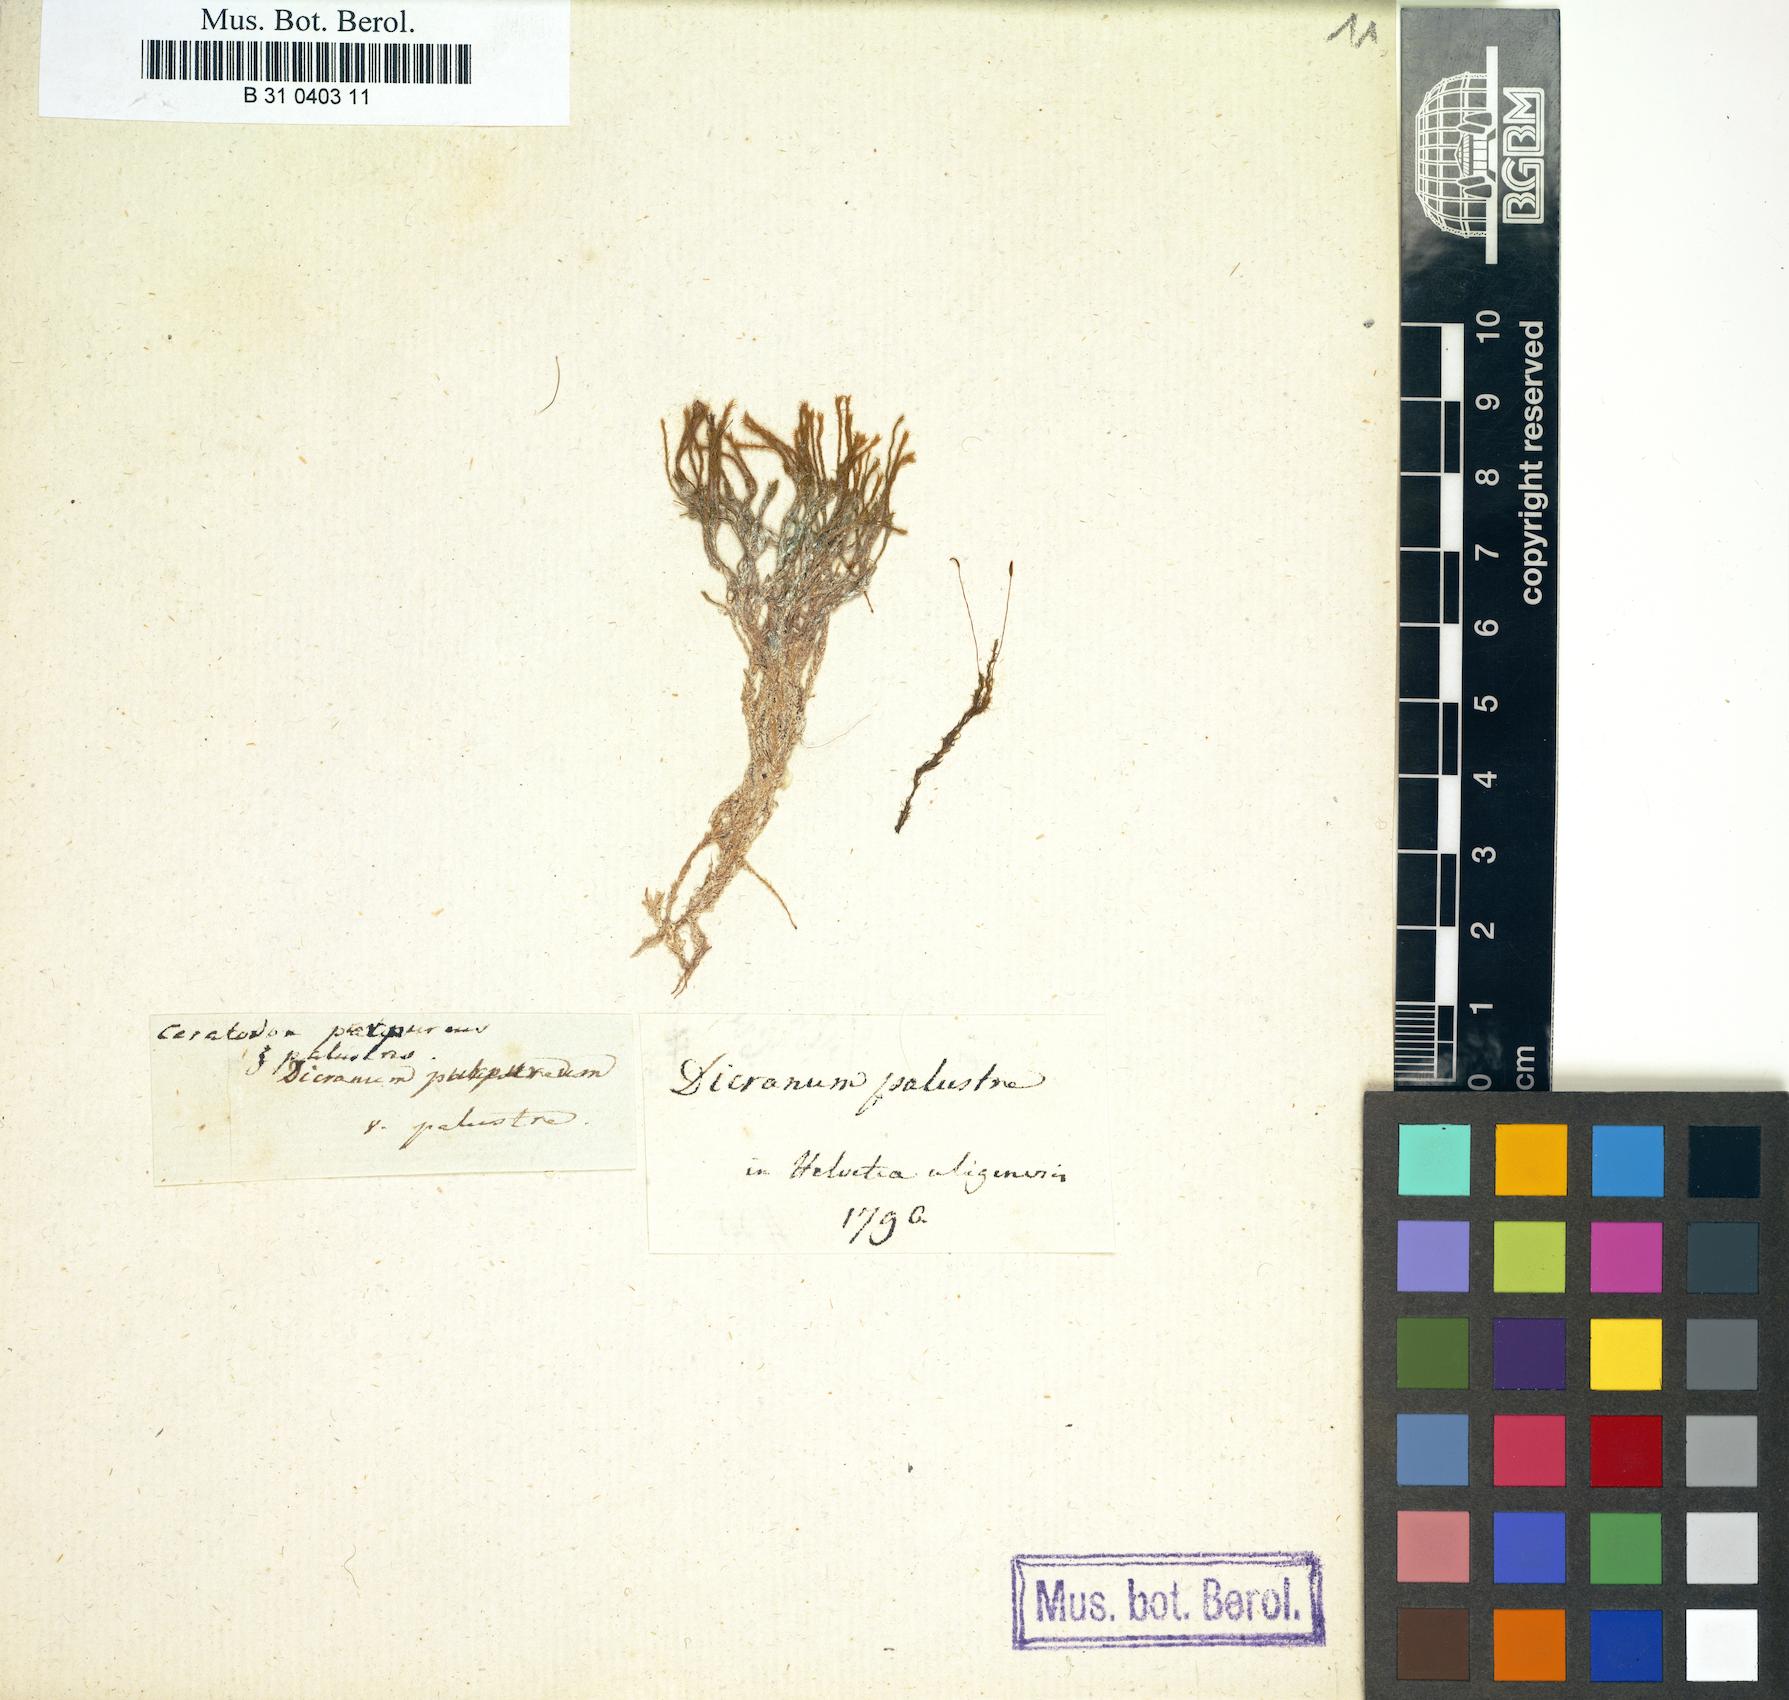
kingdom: Plantae
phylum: Bryophyta
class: Bryopsida
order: Dicranales
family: Ditrichaceae
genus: Ceratodon
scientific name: Ceratodon purpureus
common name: Redshank
